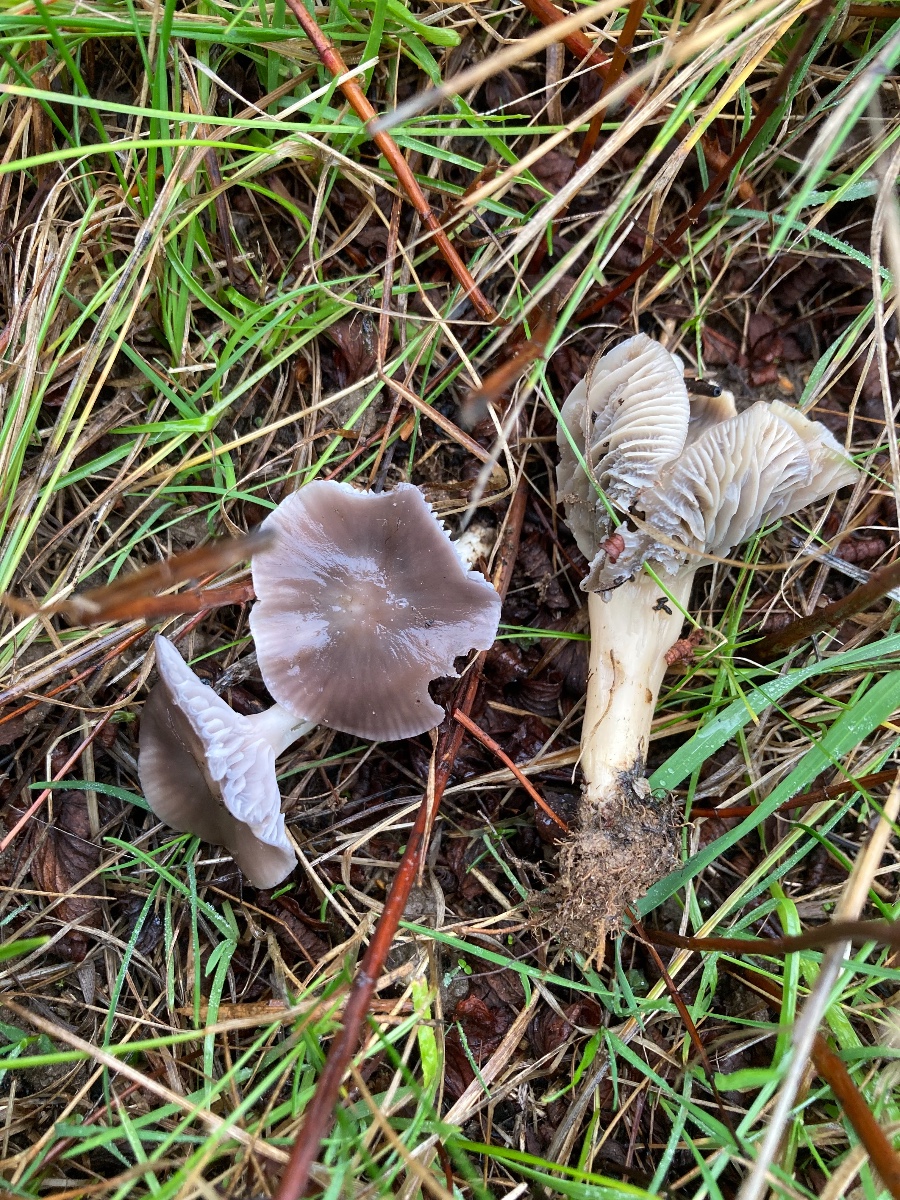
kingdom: Fungi
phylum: Basidiomycota
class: Agaricomycetes
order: Agaricales
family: Hygrophoraceae
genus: Cuphophyllus
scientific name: Cuphophyllus flavipes
